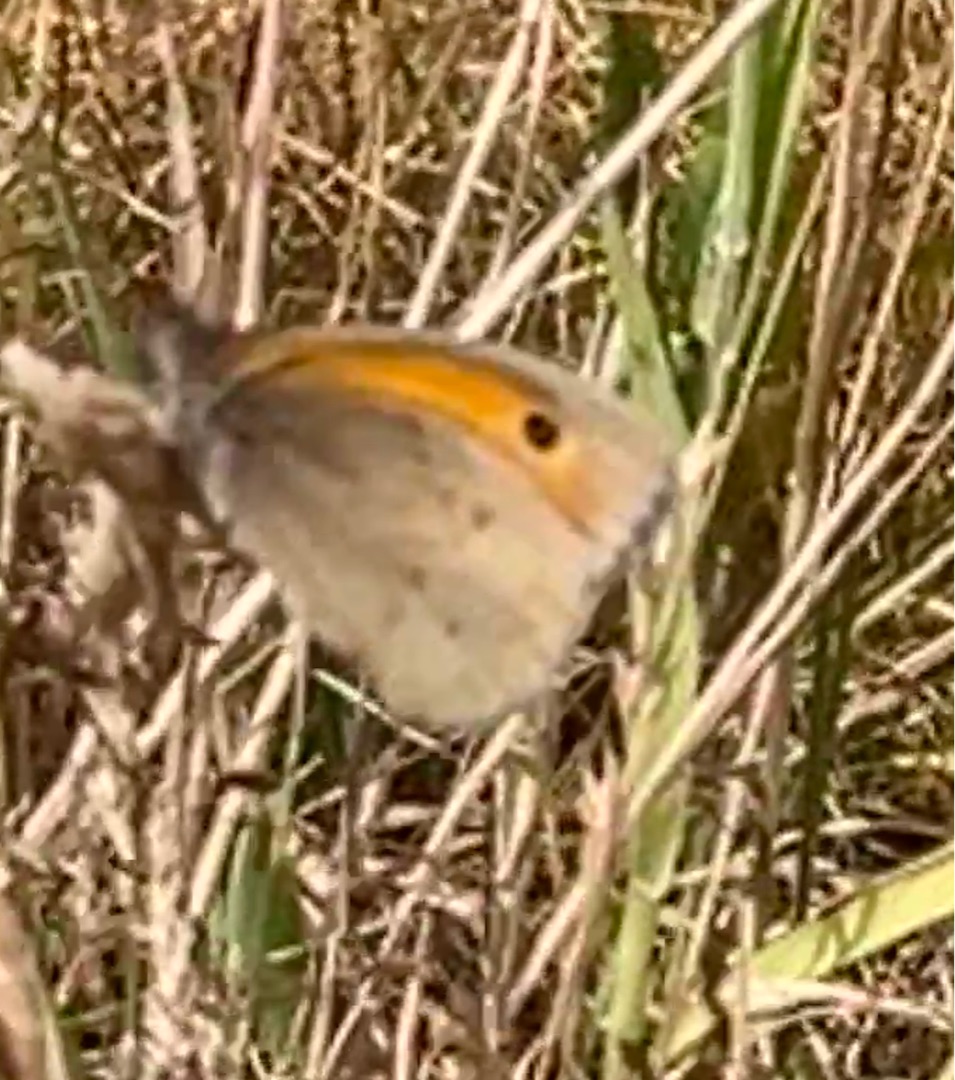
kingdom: Animalia
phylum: Arthropoda
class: Insecta
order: Lepidoptera
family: Nymphalidae
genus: Maniola
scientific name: Maniola jurtina
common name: Græsrandøje
